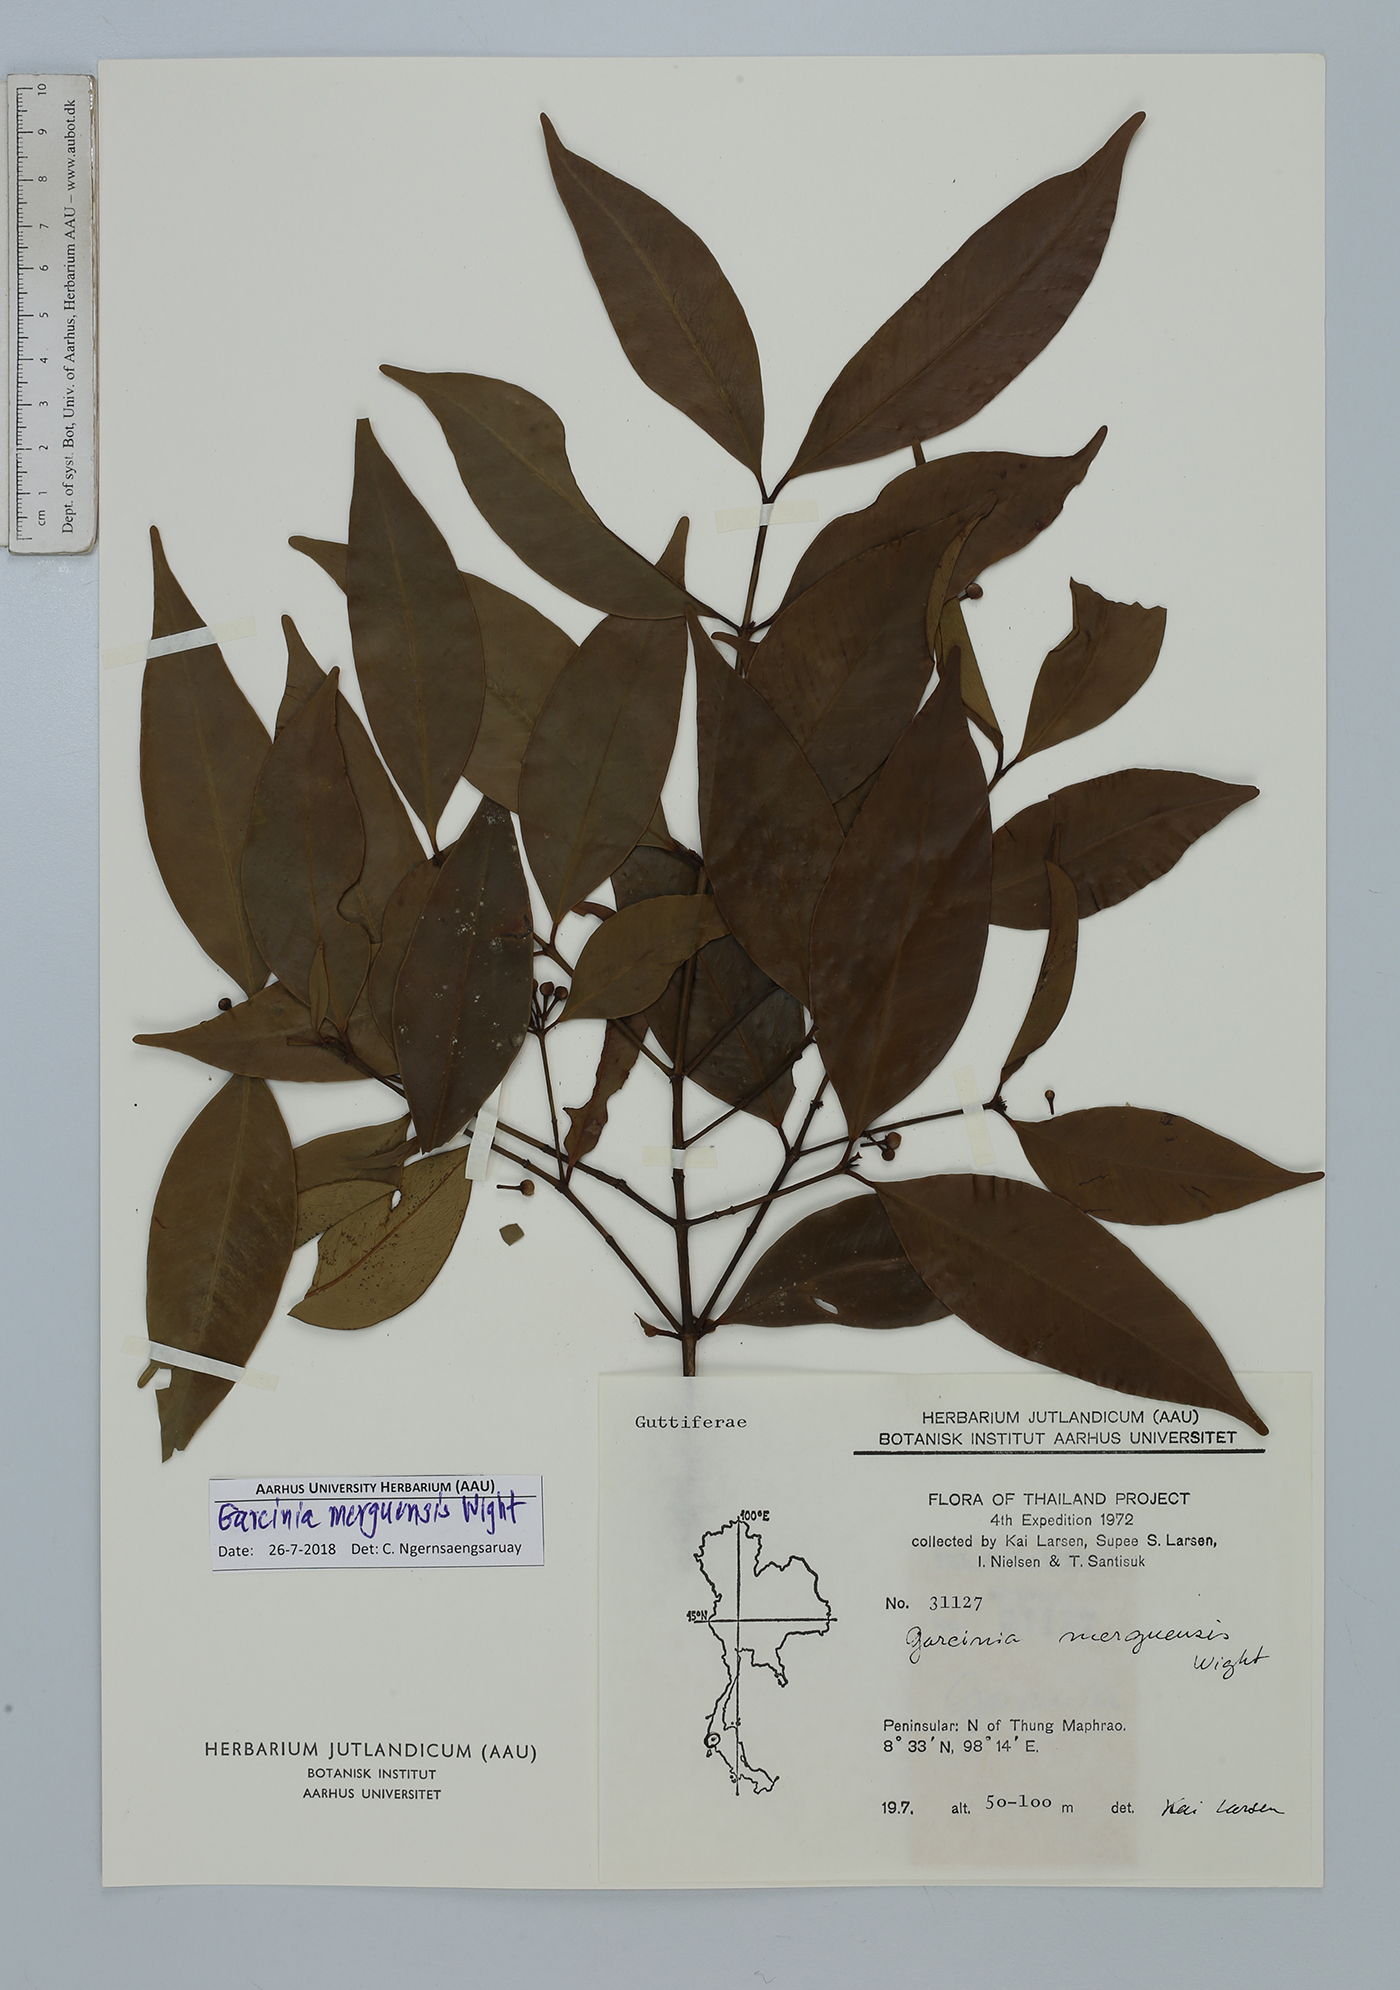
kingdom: Plantae
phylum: Tracheophyta
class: Magnoliopsida
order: Malpighiales
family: Clusiaceae
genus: Garcinia
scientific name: Garcinia merguensis
